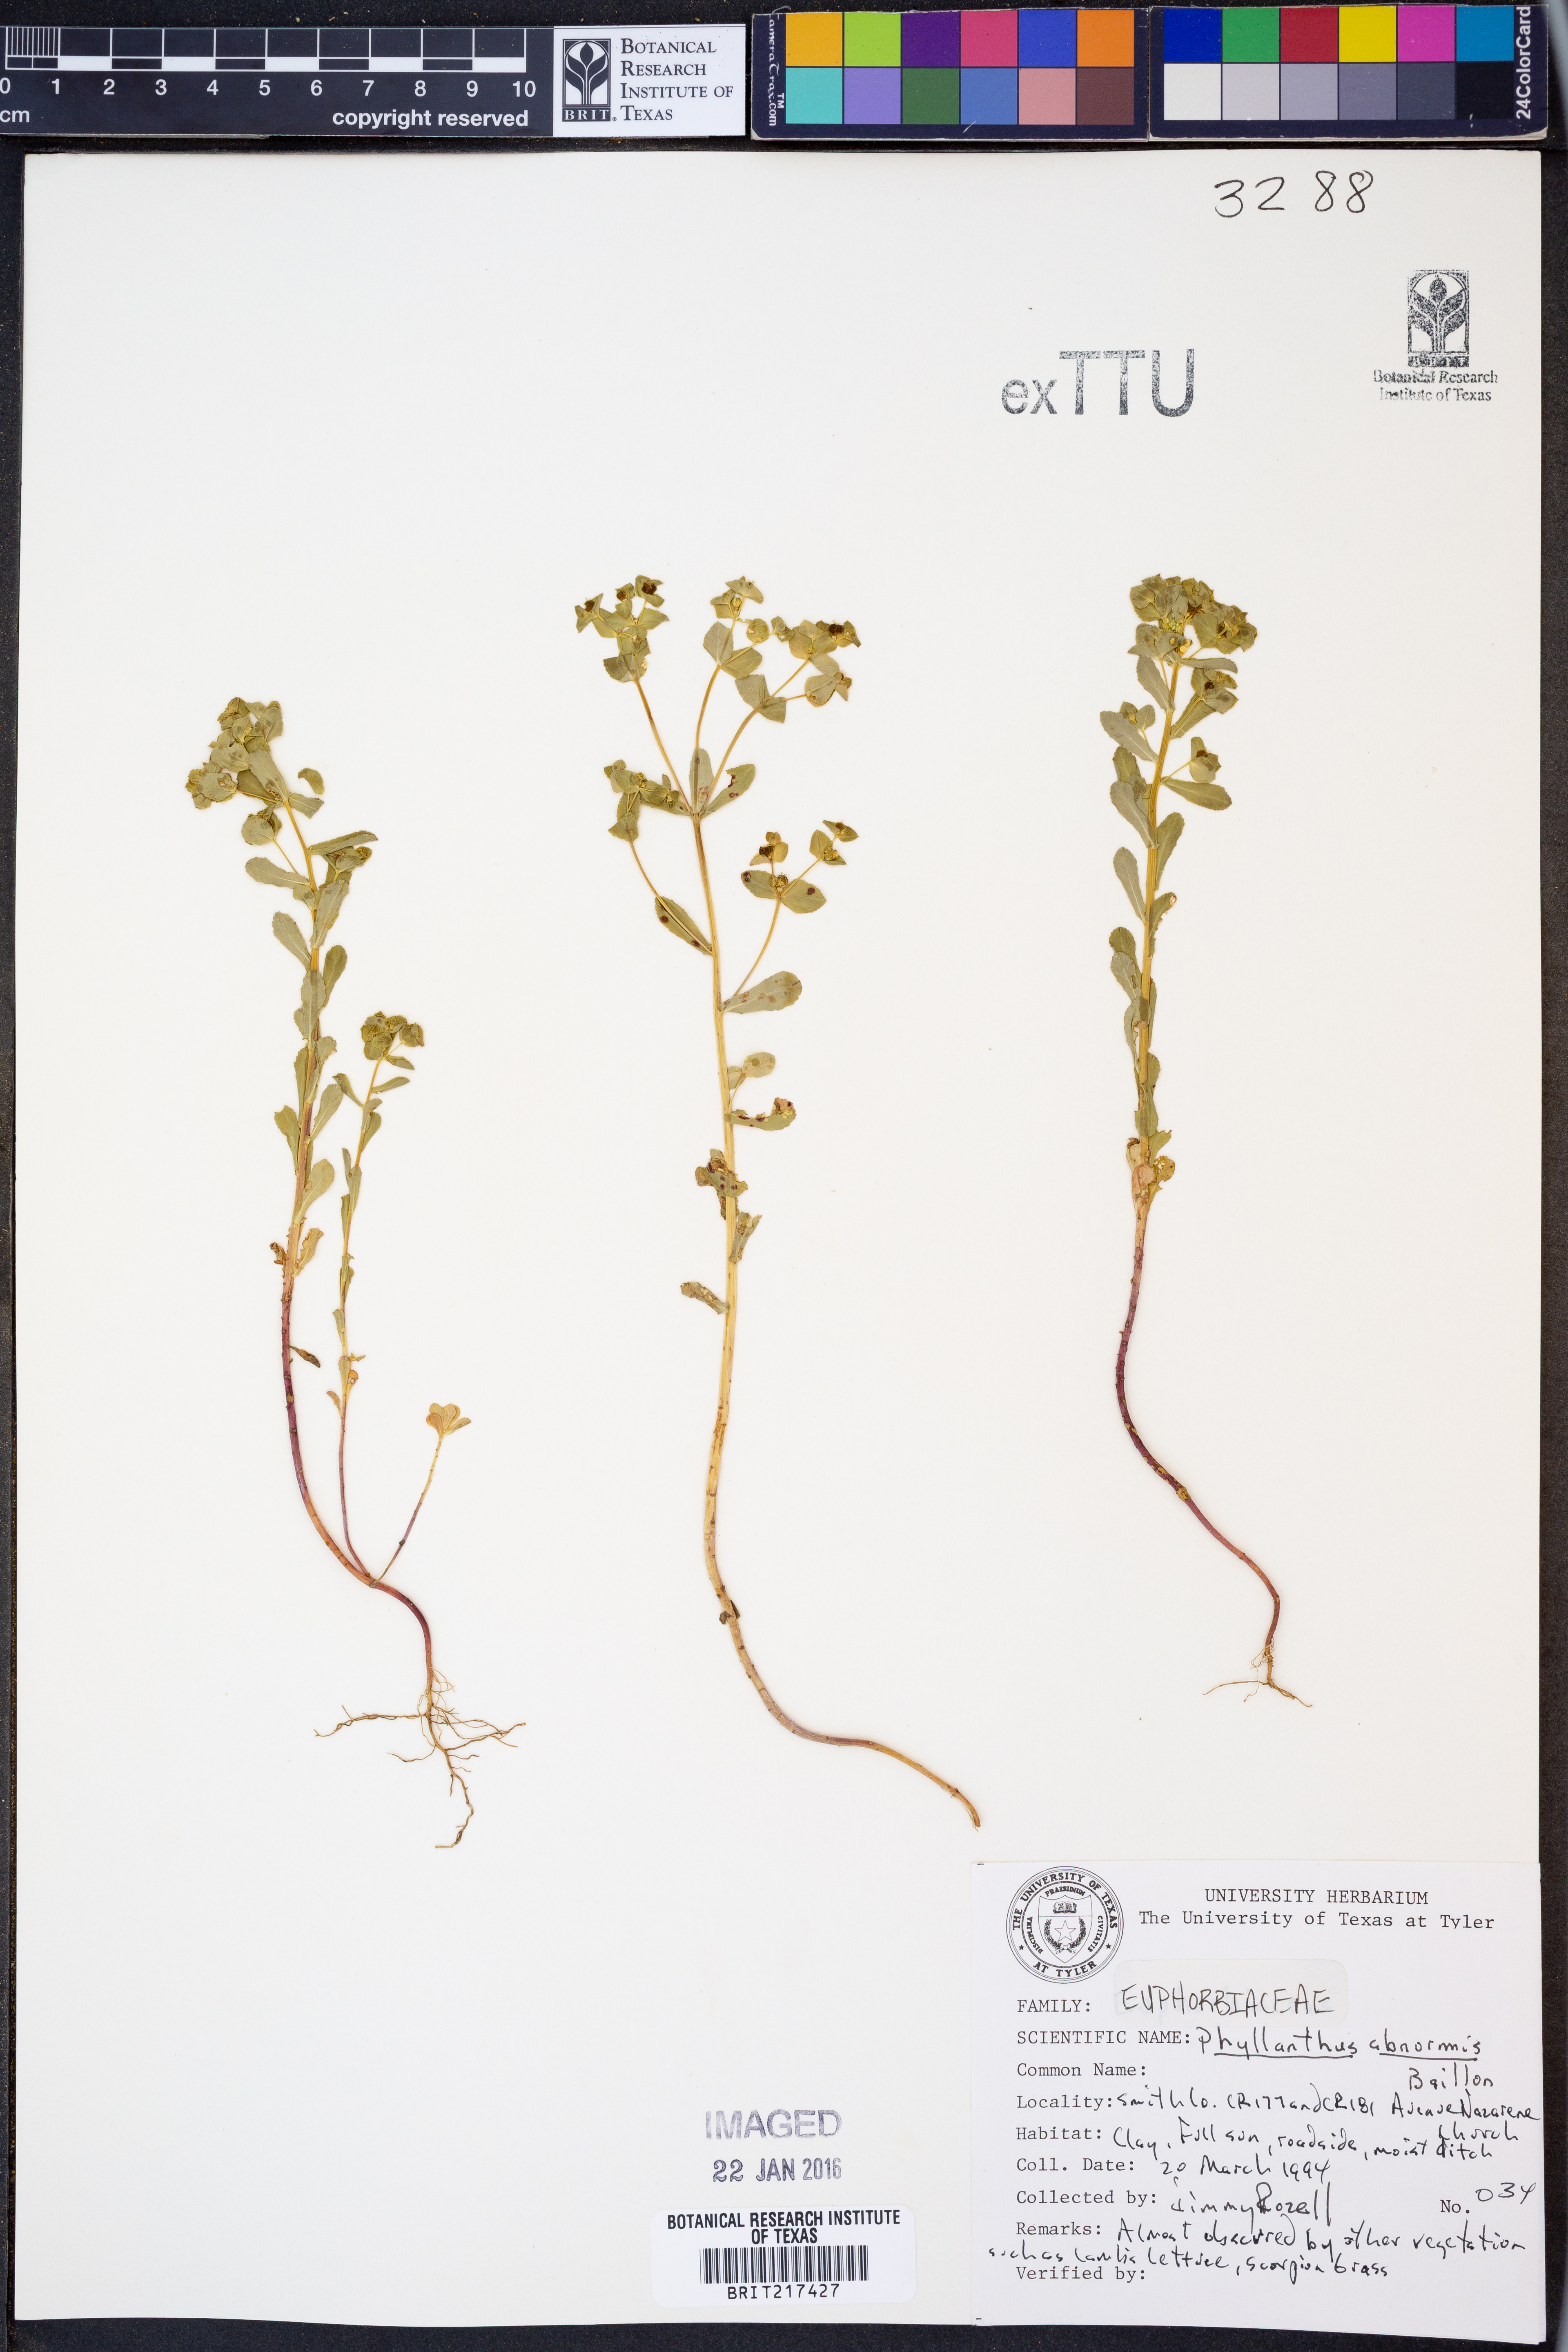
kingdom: Plantae
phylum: Tracheophyta
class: Magnoliopsida
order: Malpighiales
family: Phyllanthaceae
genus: Phyllanthus
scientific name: Phyllanthus abnormis
